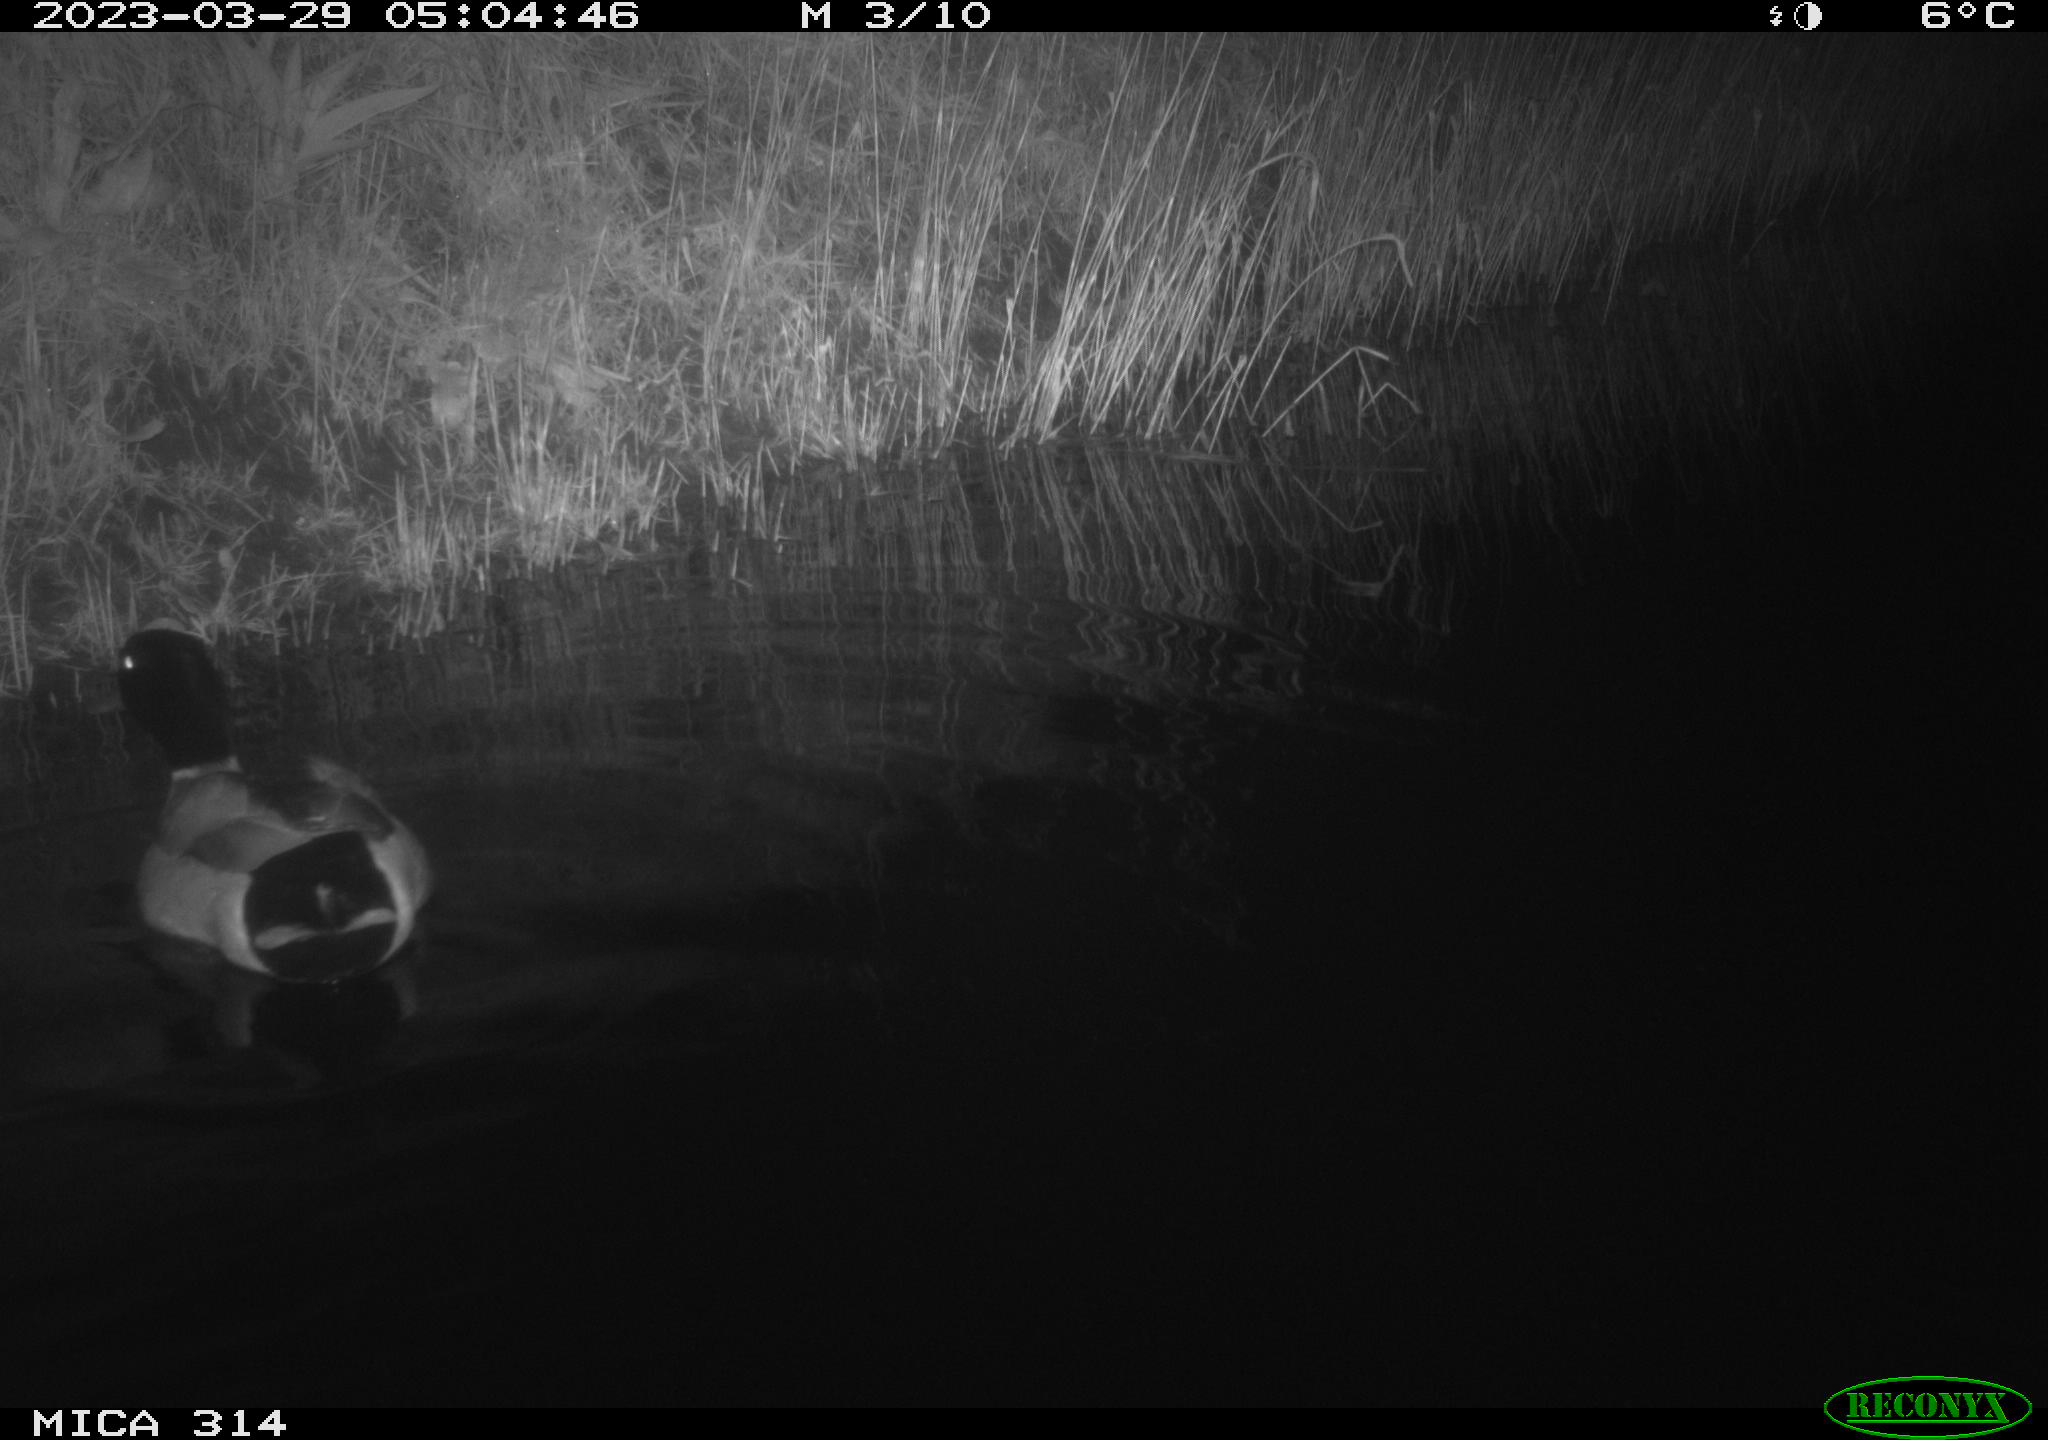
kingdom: Animalia
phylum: Chordata
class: Aves
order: Anseriformes
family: Anatidae
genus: Anas
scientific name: Anas
